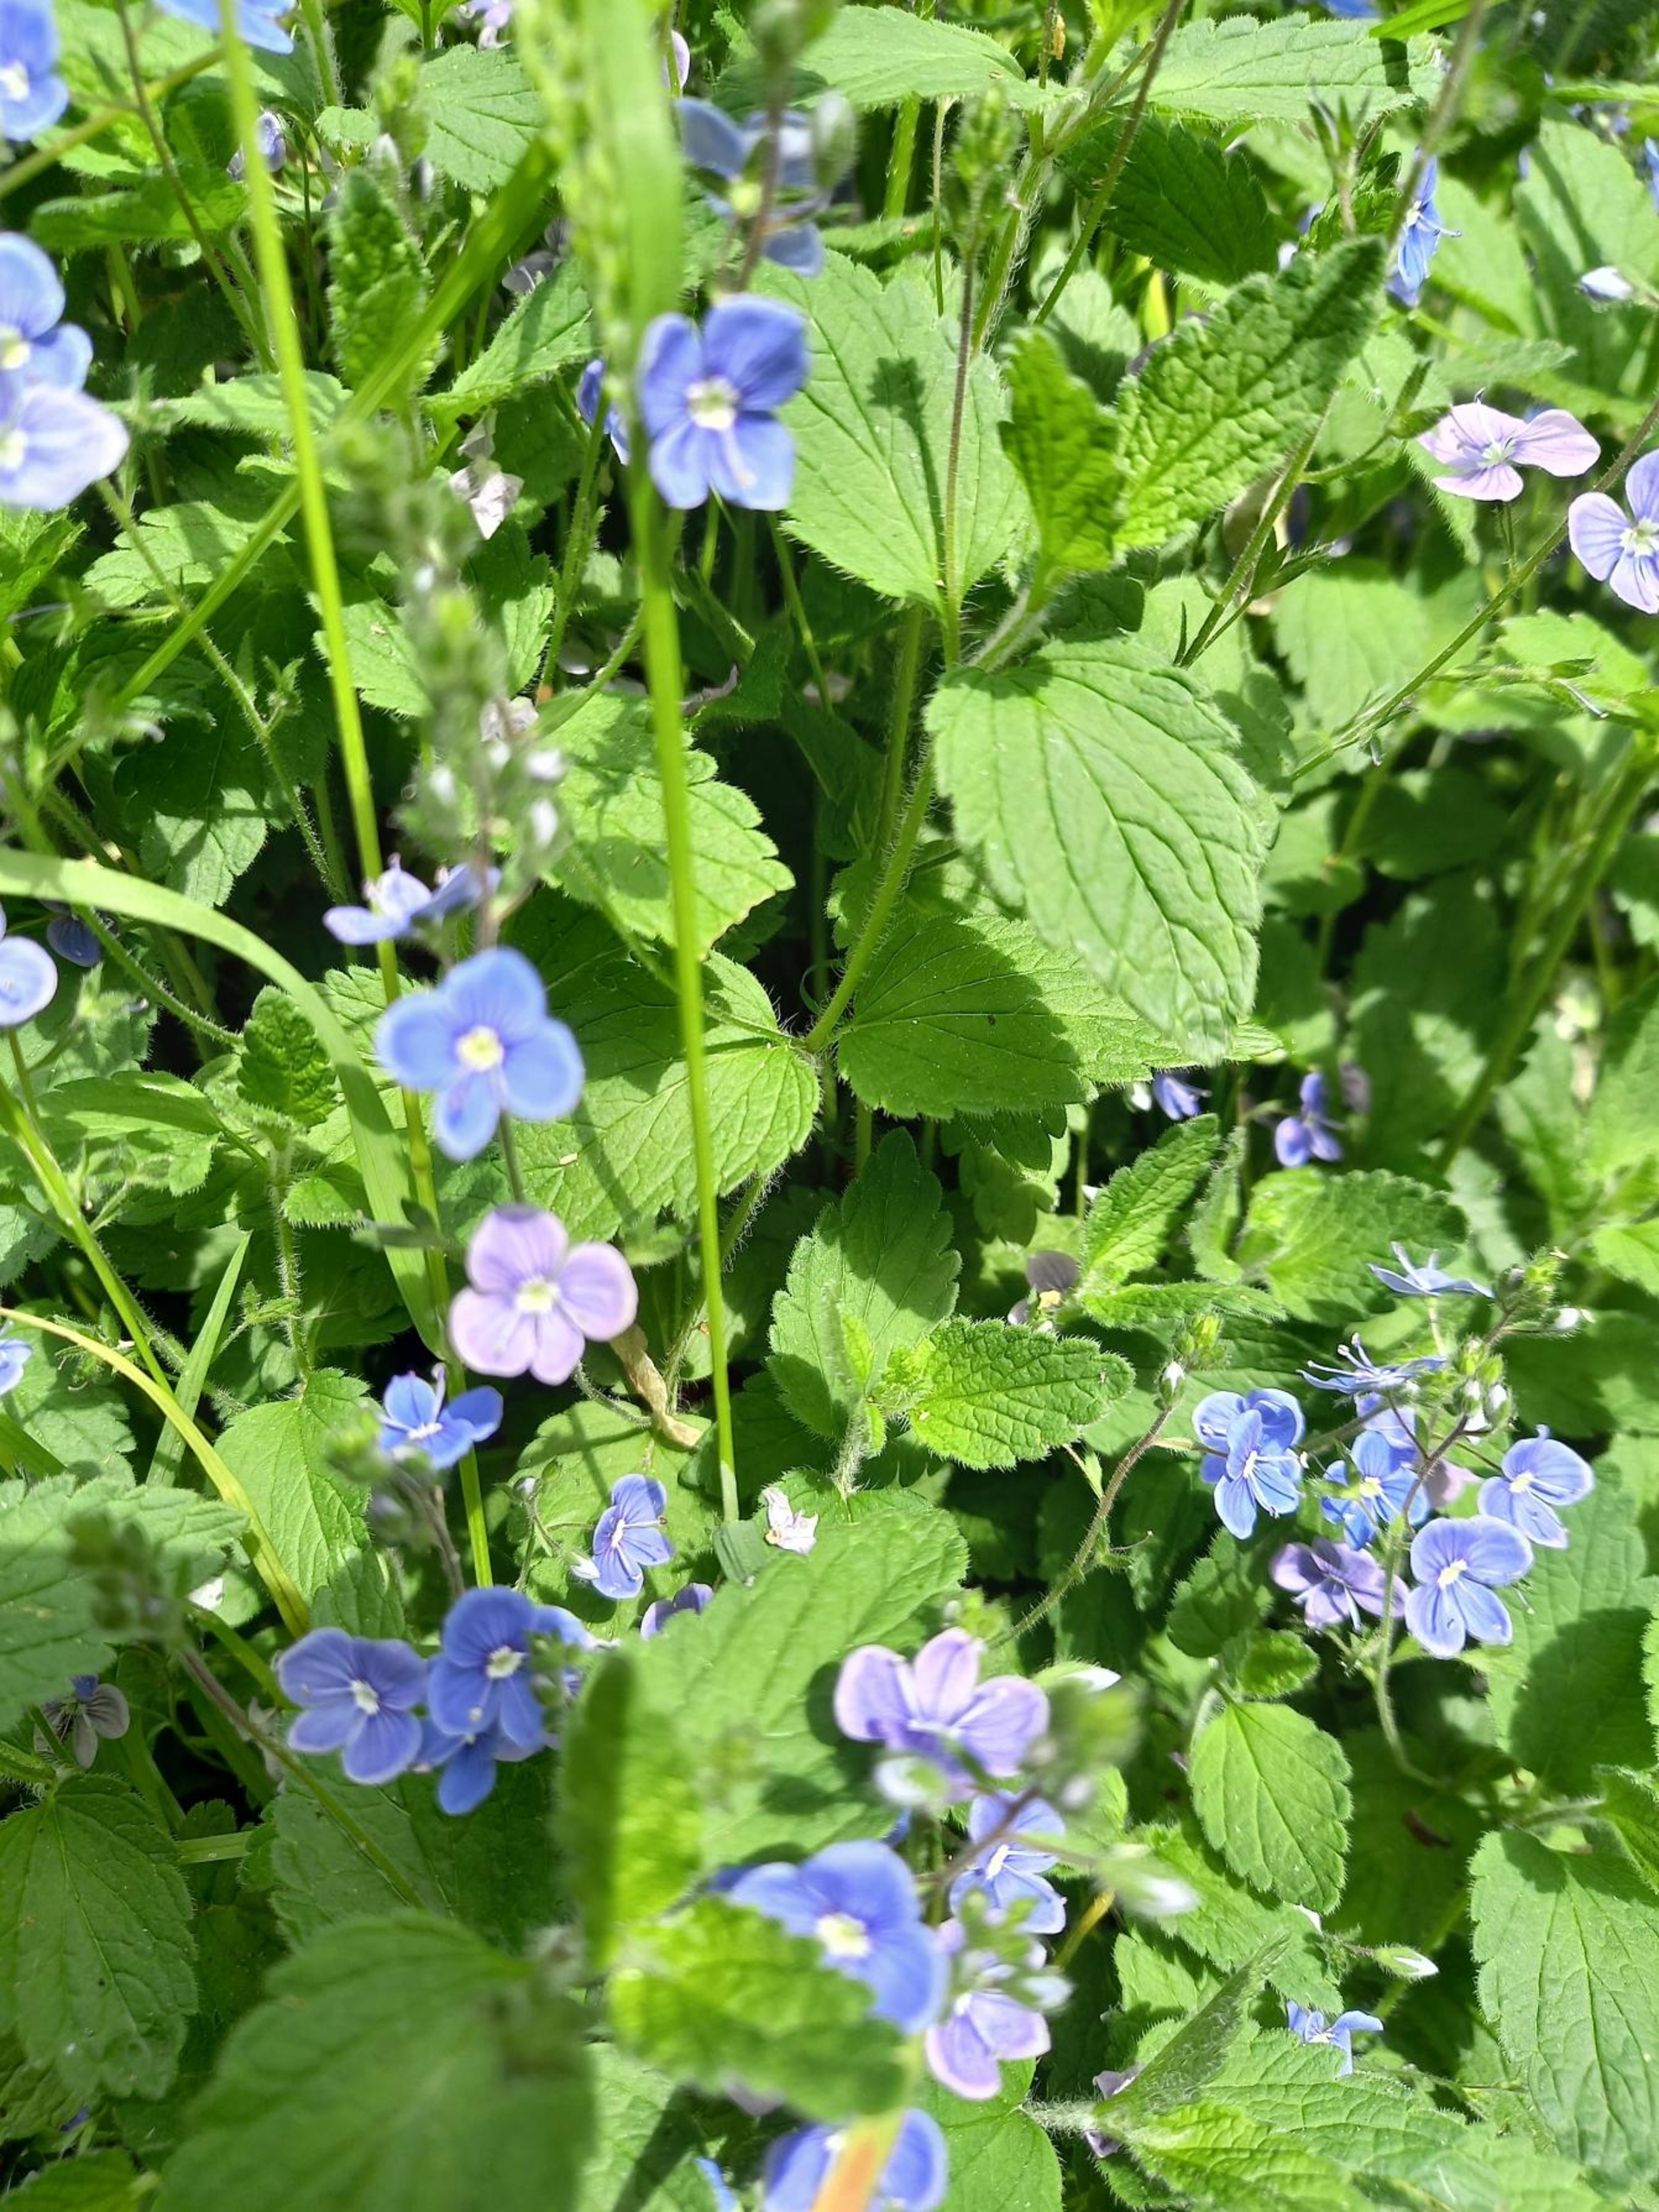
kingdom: Plantae
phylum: Tracheophyta
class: Magnoliopsida
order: Lamiales
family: Plantaginaceae
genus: Veronica
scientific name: Veronica chamaedrys
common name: Tveskægget ærenpris
